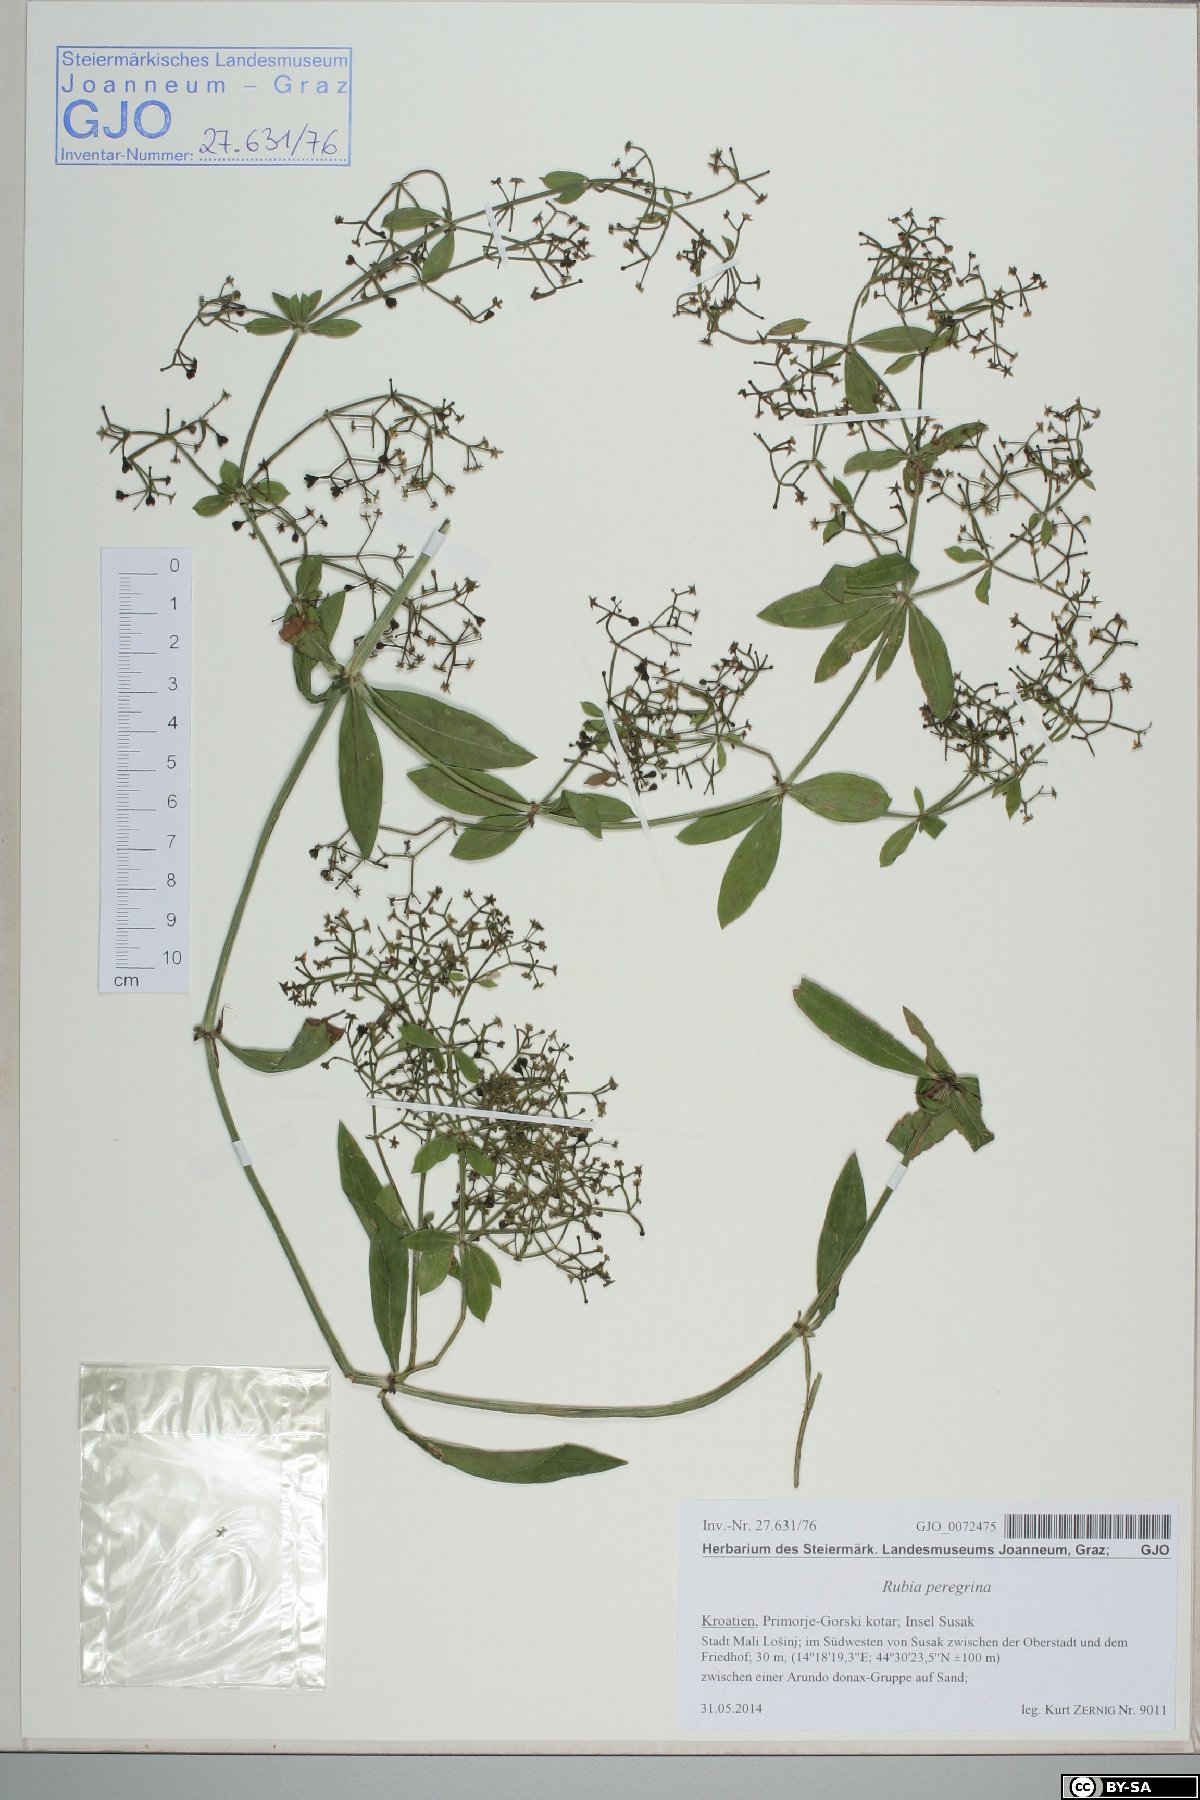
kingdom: Plantae
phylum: Tracheophyta
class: Magnoliopsida
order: Gentianales
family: Rubiaceae
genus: Rubia
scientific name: Rubia peregrina
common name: Wild madder
